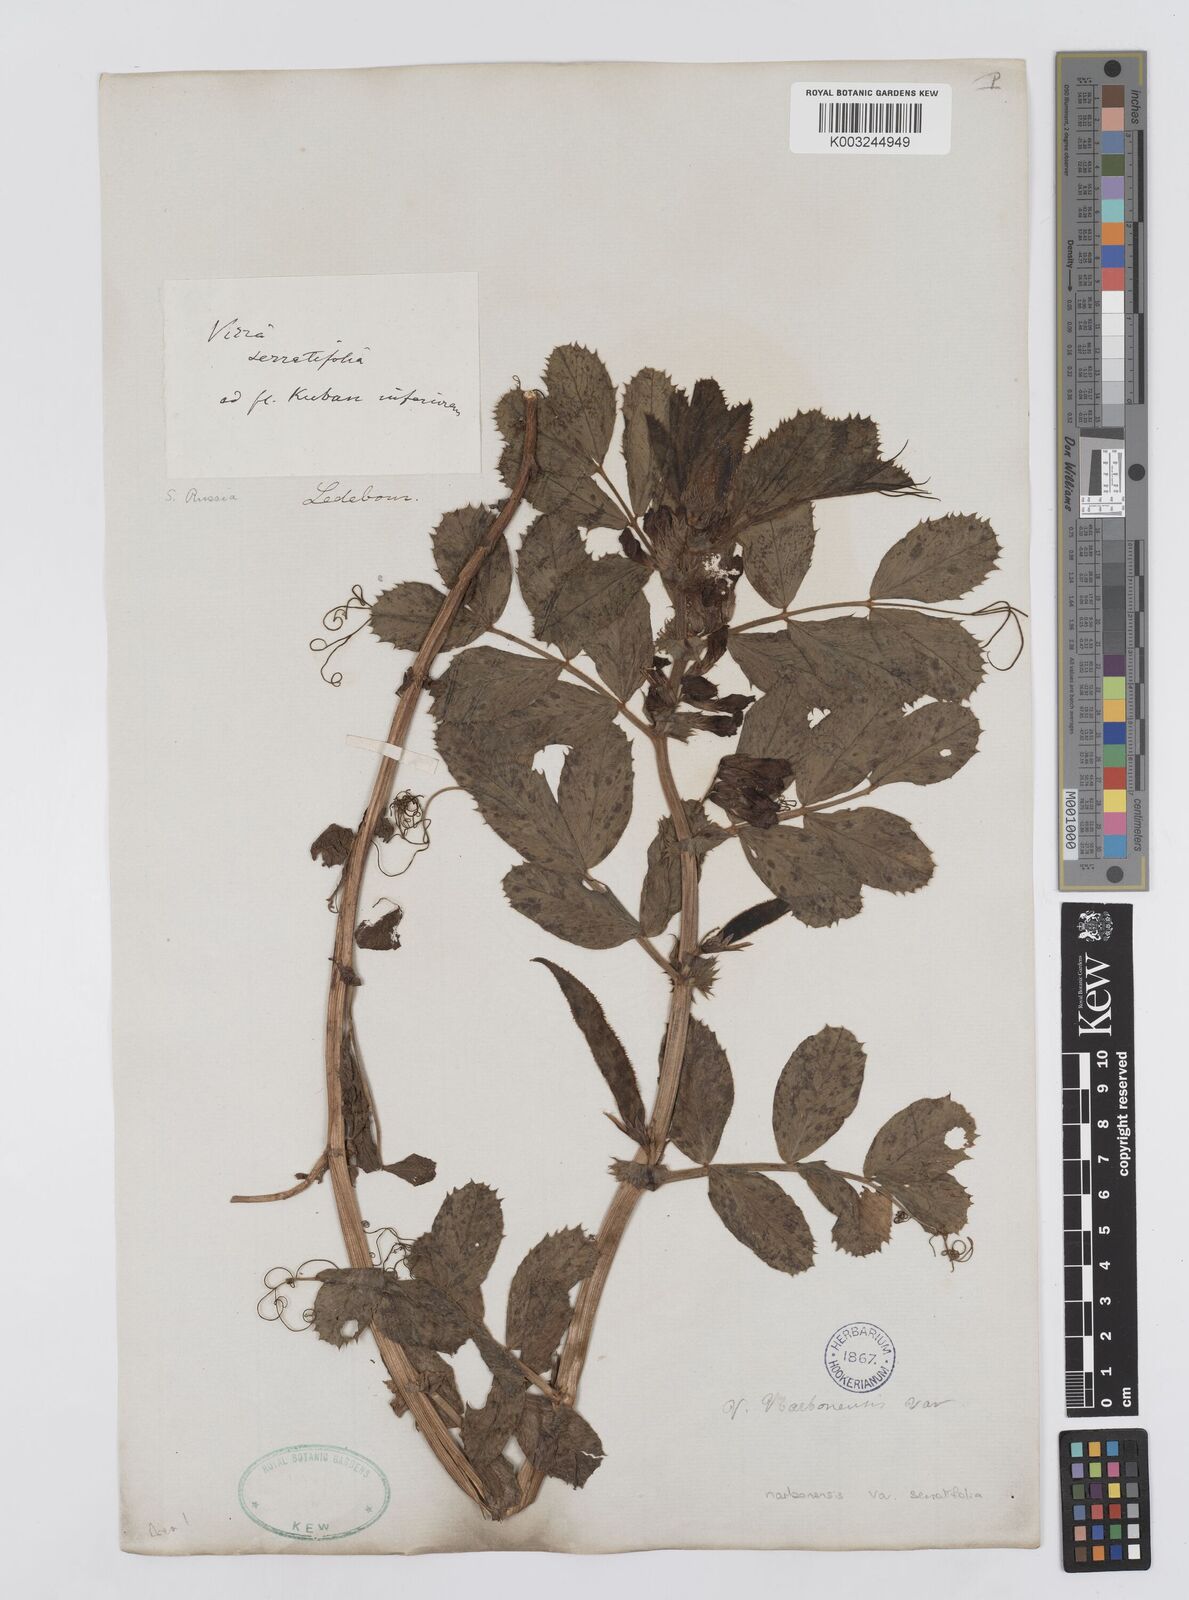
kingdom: Plantae
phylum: Tracheophyta
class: Magnoliopsida
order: Fabales
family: Fabaceae
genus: Vicia
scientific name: Vicia serratifolia
